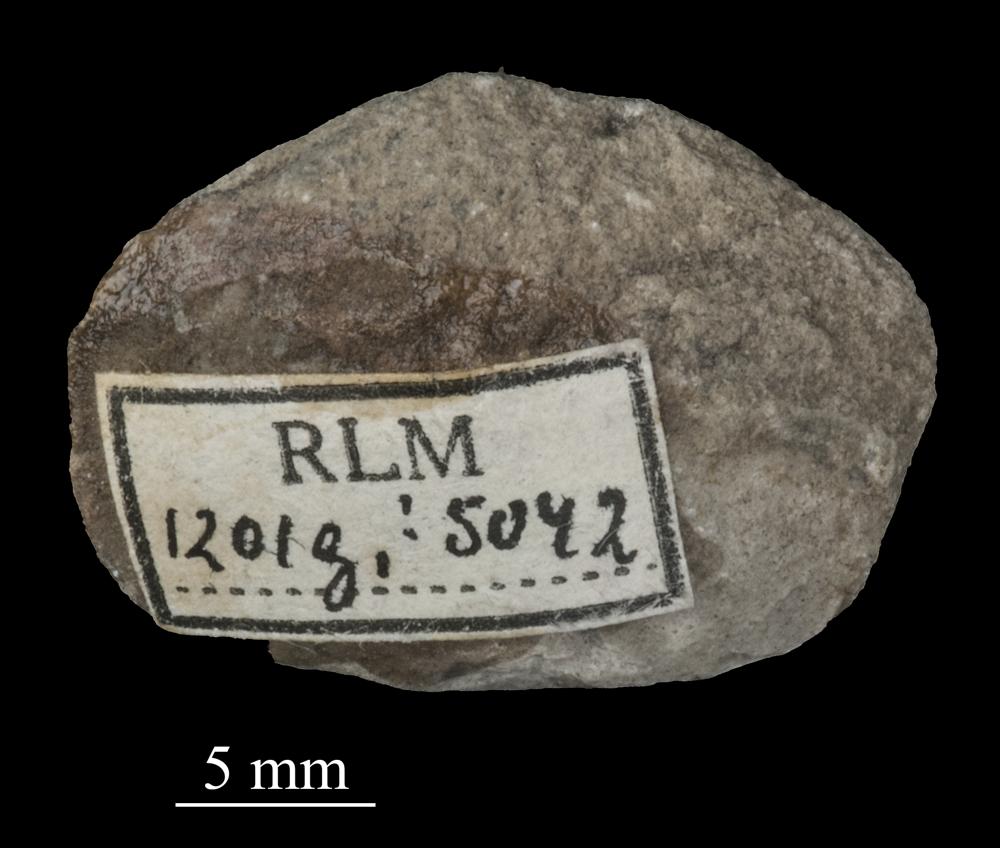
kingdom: Animalia
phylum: Mollusca
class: Bivalvia
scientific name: Bivalvia
